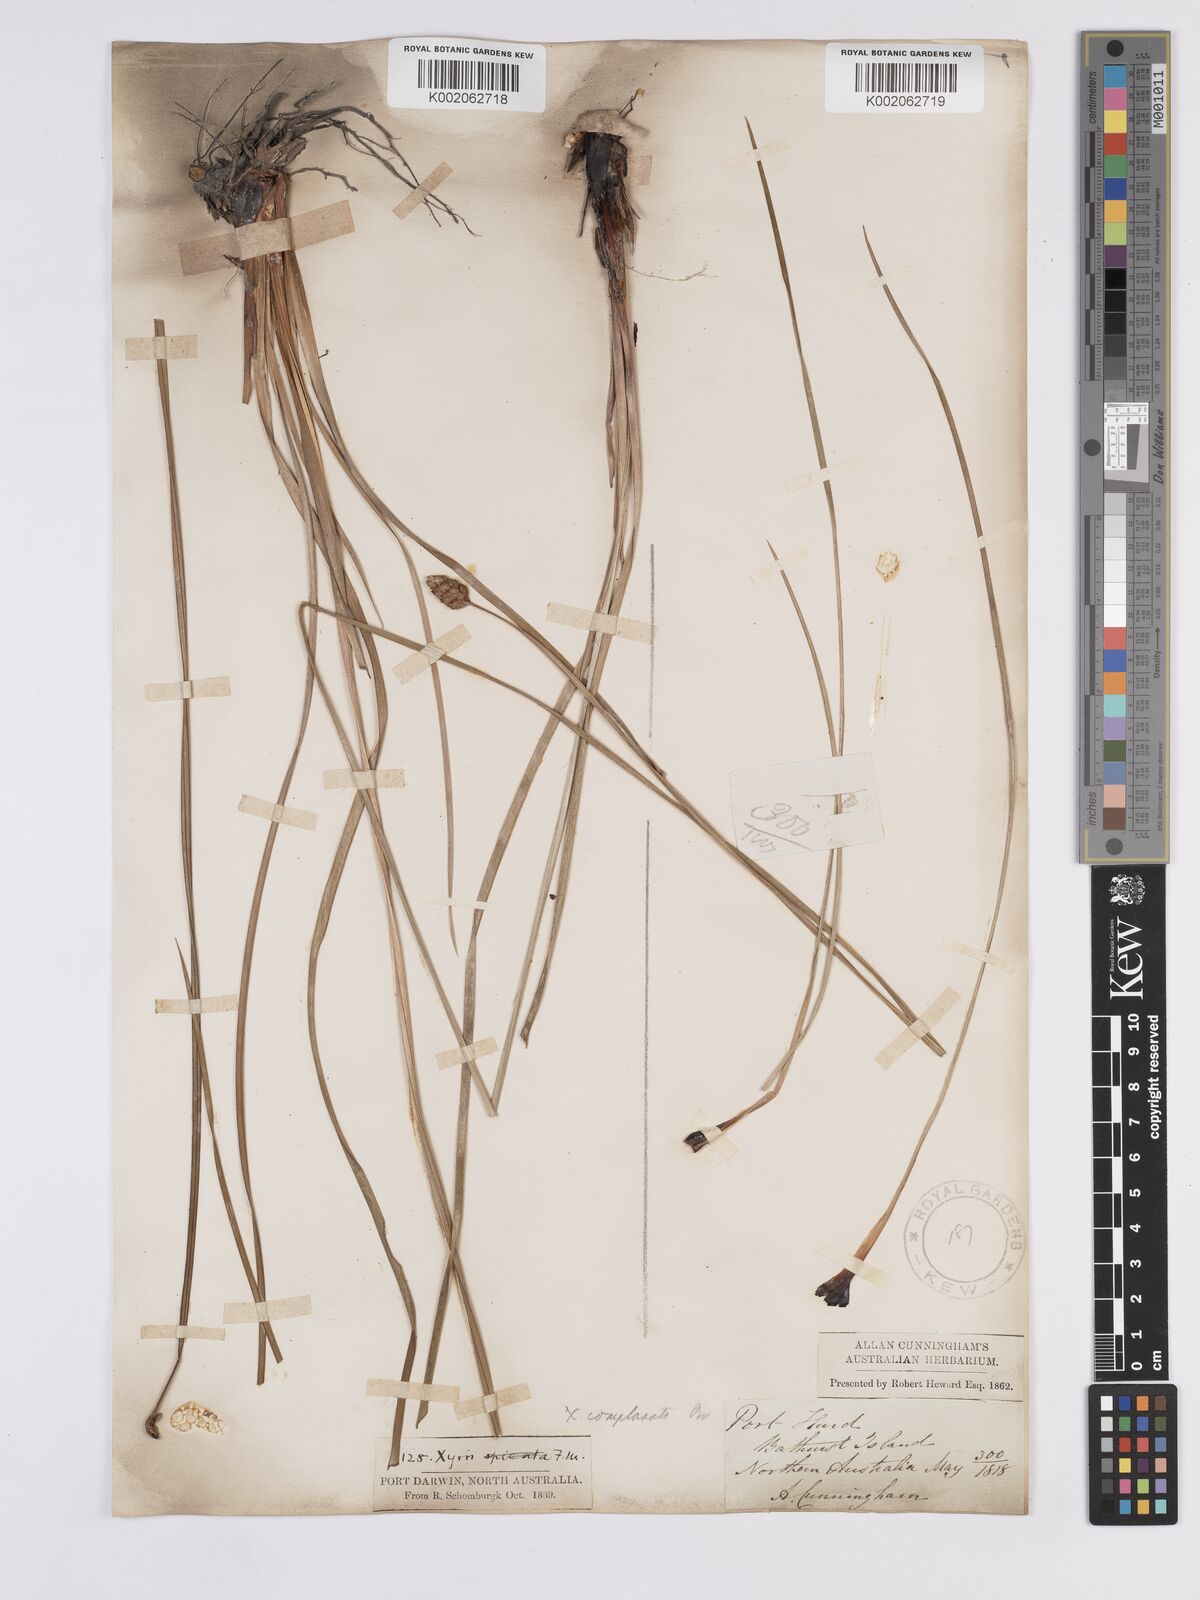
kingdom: Plantae
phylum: Tracheophyta
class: Liliopsida
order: Poales
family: Xyridaceae
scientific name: Xyridaceae
